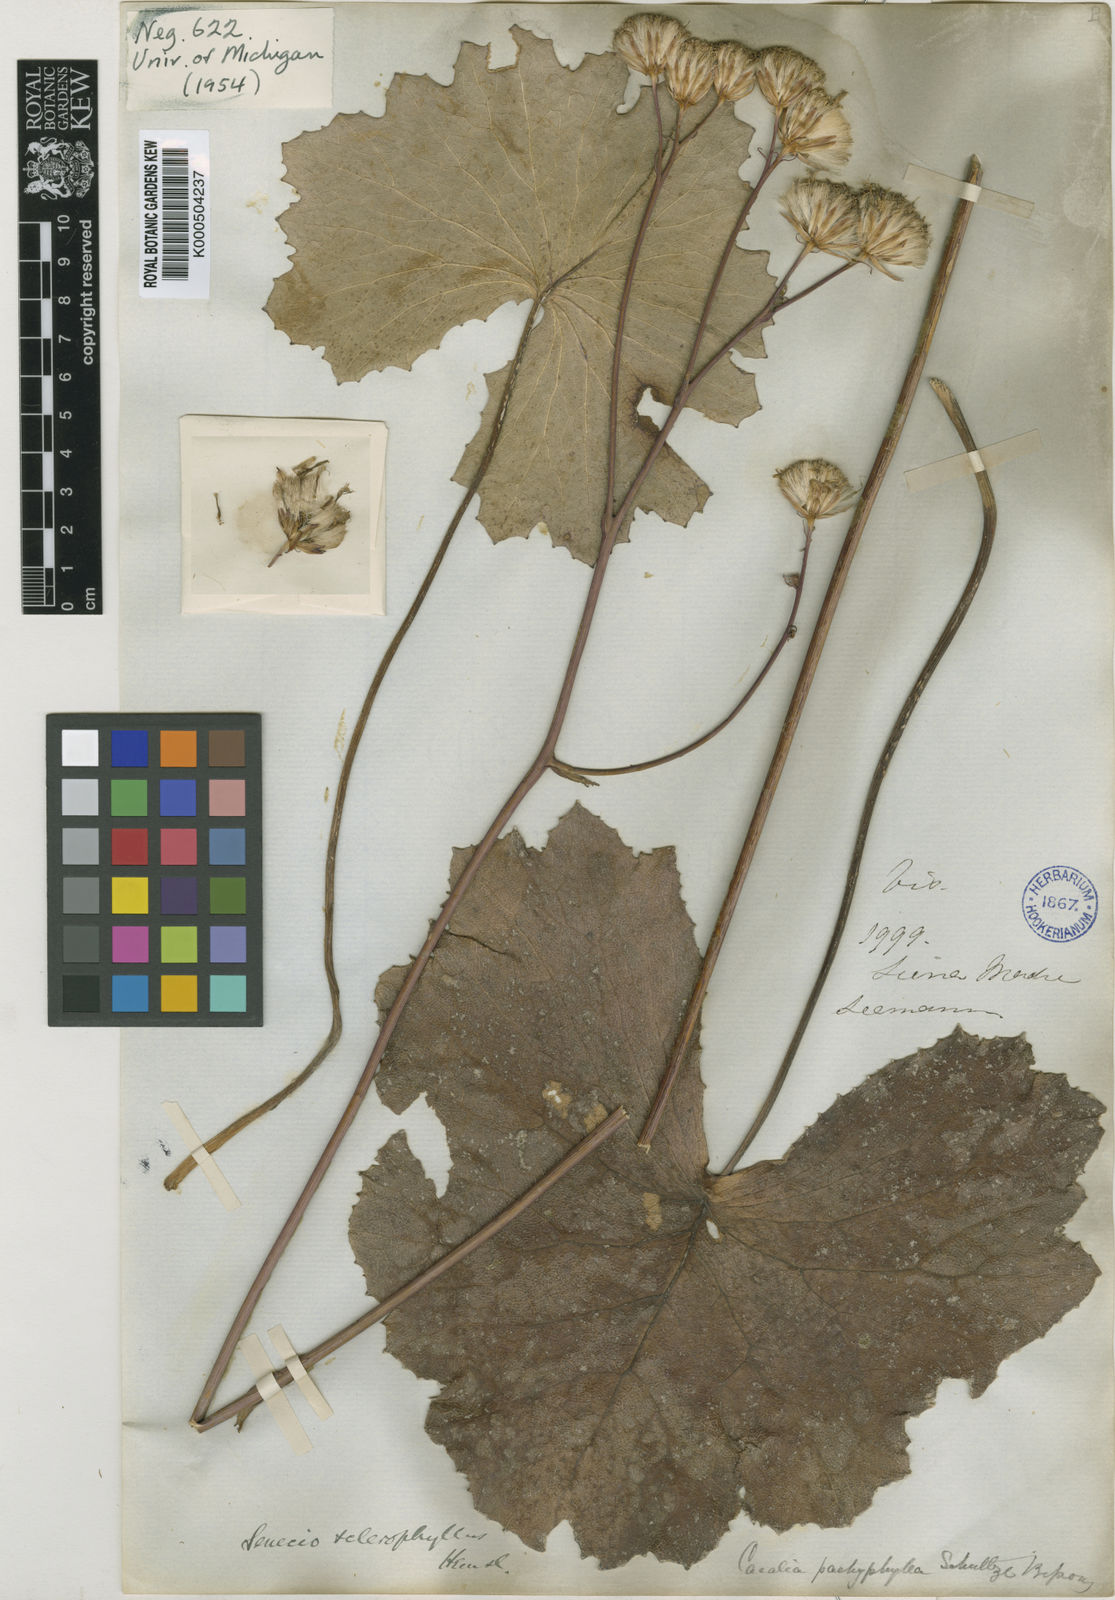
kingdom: Plantae
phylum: Tracheophyta
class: Magnoliopsida
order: Asterales
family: Asteraceae
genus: Psacalium
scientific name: Psacalium
